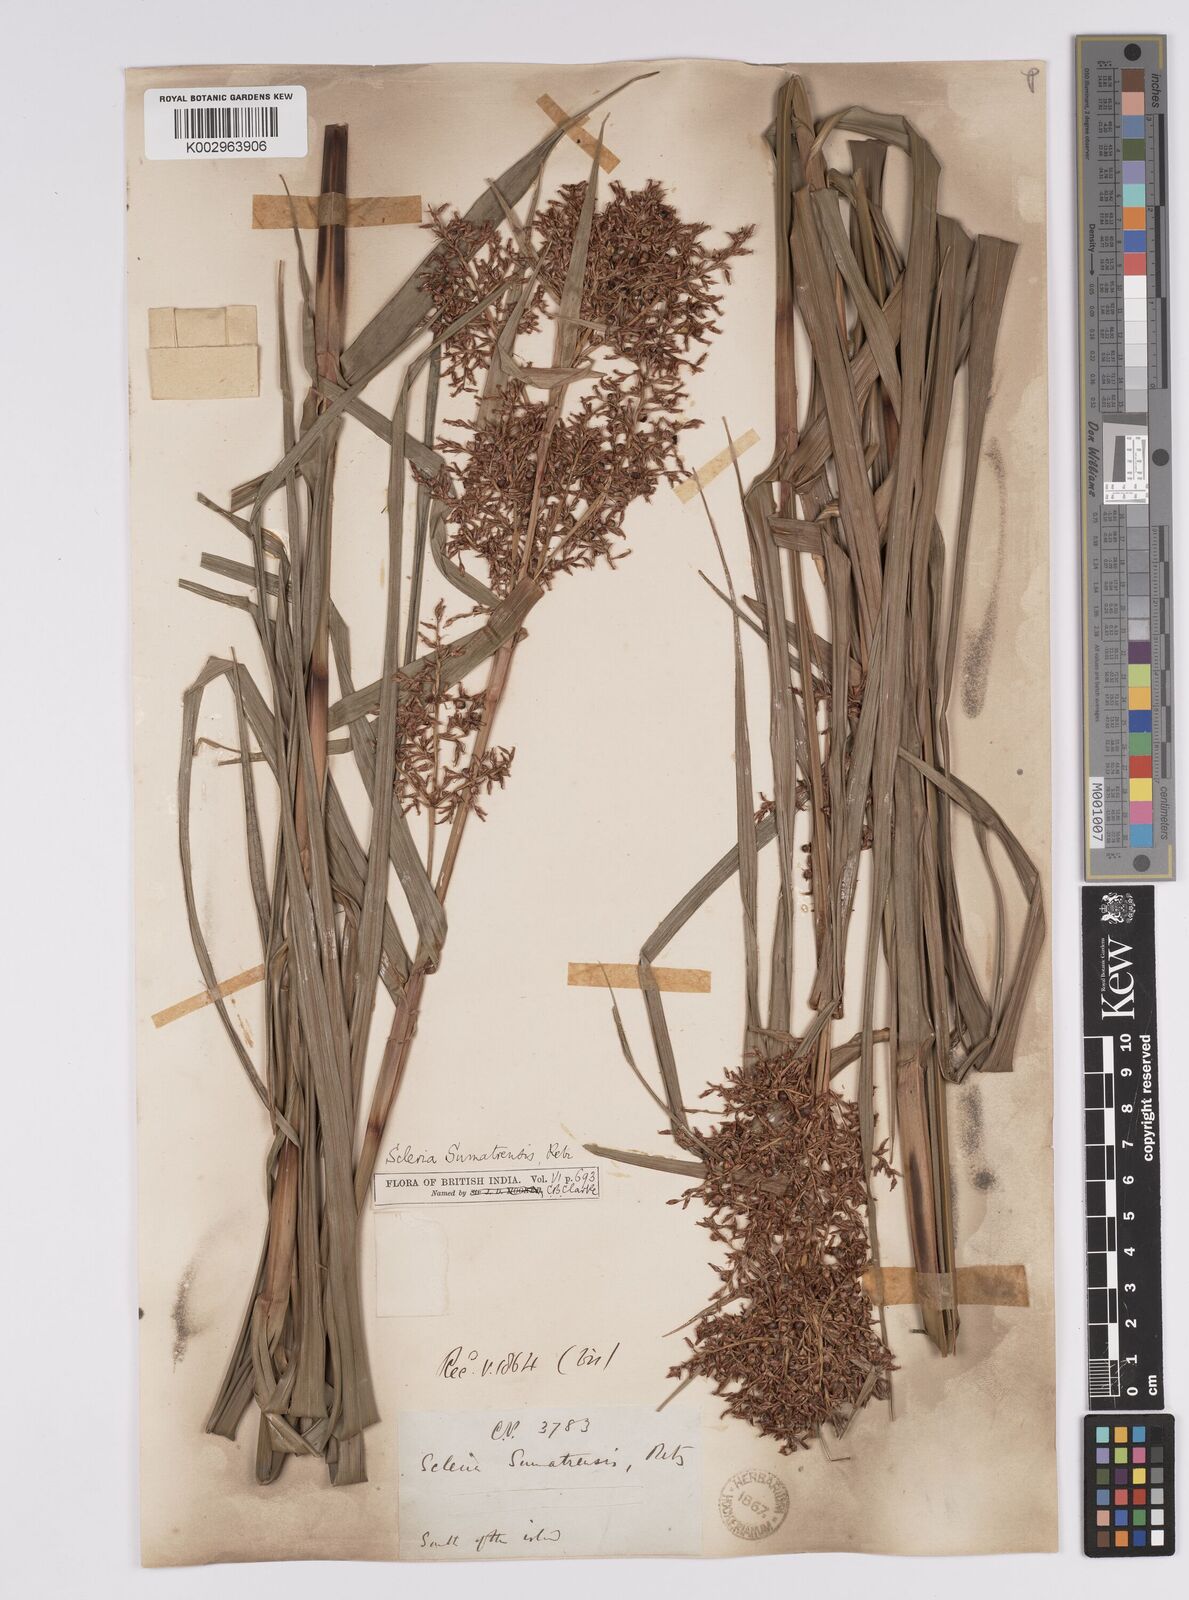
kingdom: Plantae
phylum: Tracheophyta
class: Liliopsida
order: Poales
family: Cyperaceae
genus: Scleria
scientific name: Scleria sumatrensis
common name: Sumatran scleria
